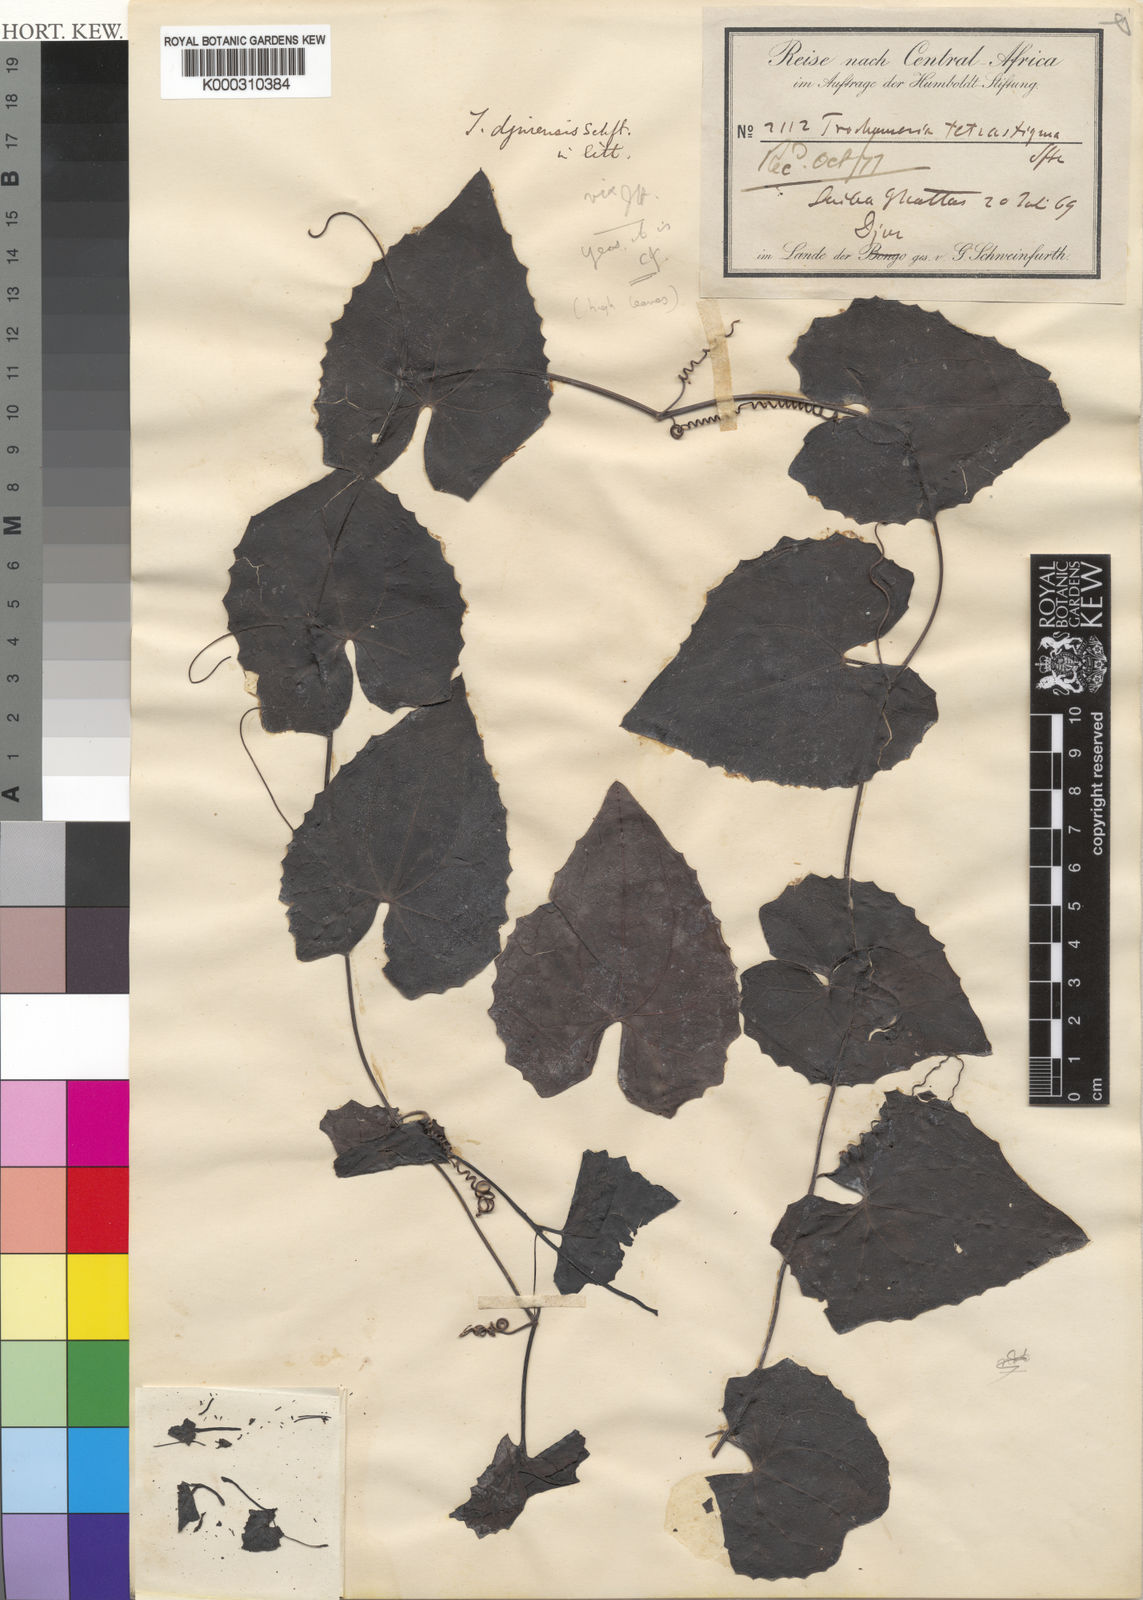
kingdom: Plantae
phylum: Tracheophyta
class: Magnoliopsida
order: Cucurbitales
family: Cucurbitaceae
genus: Trochomeria
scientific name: Trochomeria
